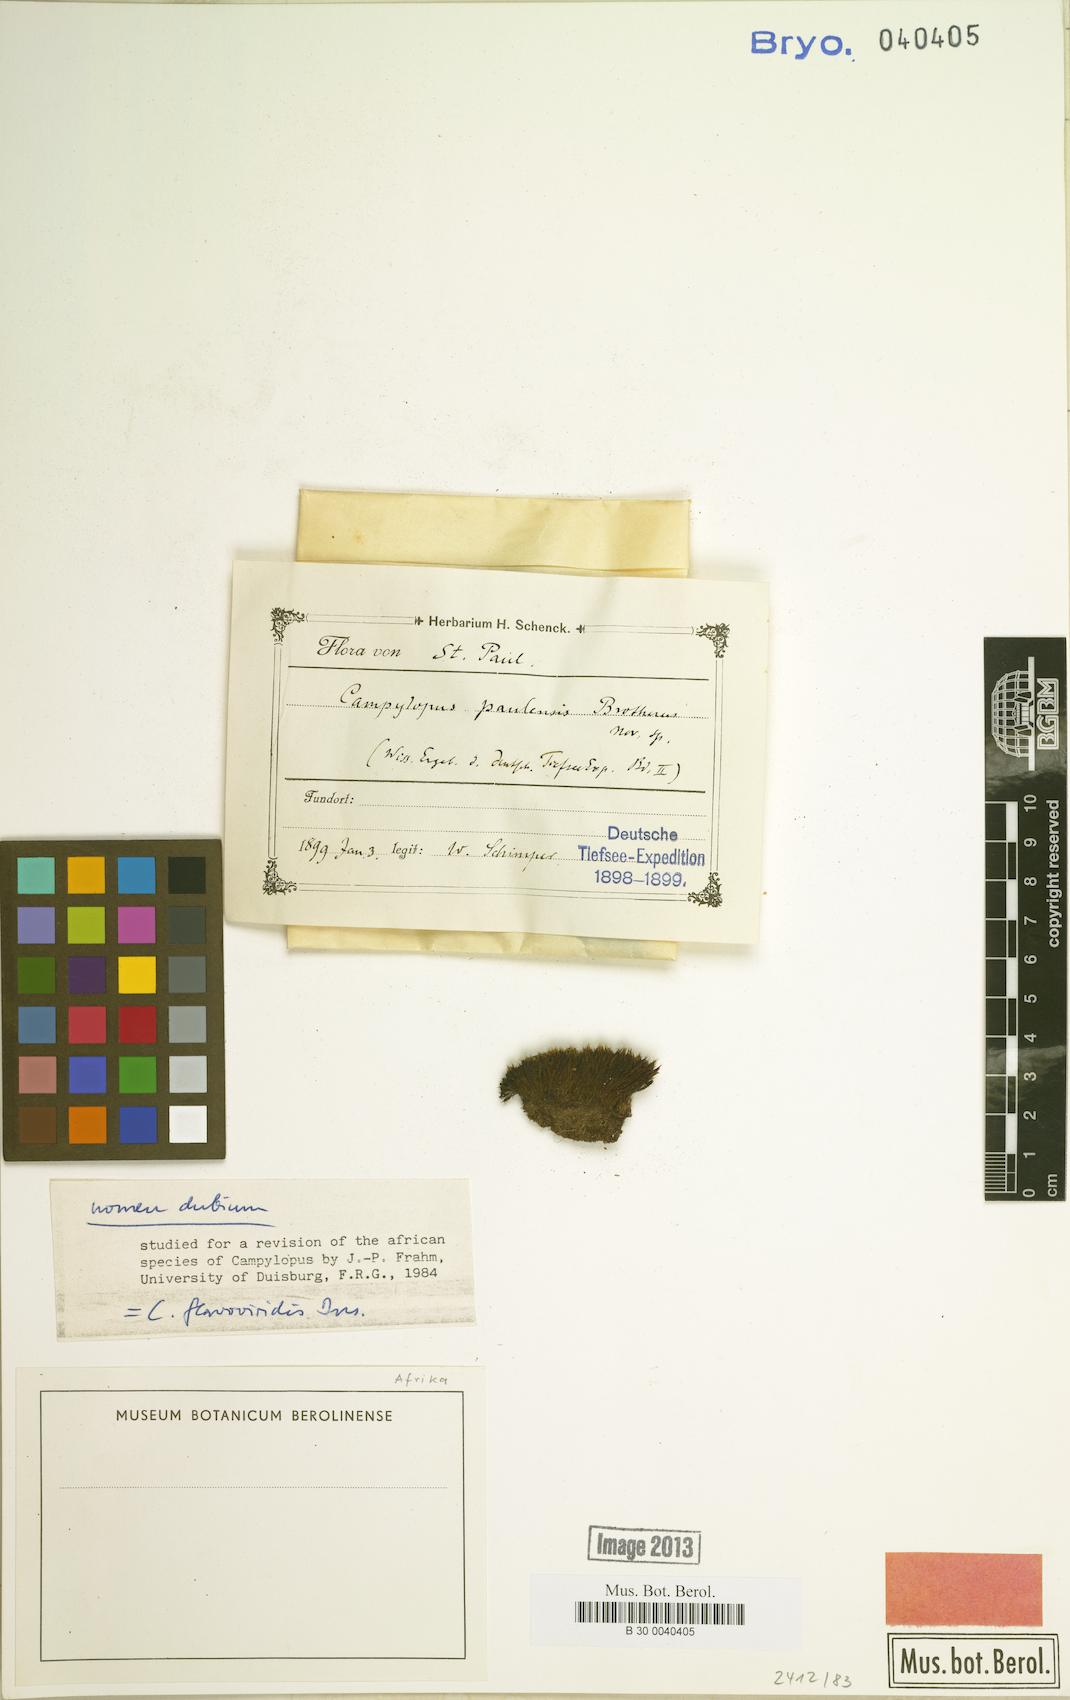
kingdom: Plantae
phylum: Bryophyta
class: Bryopsida
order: Dicranales
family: Dicranaceae
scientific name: Dicranaceae
